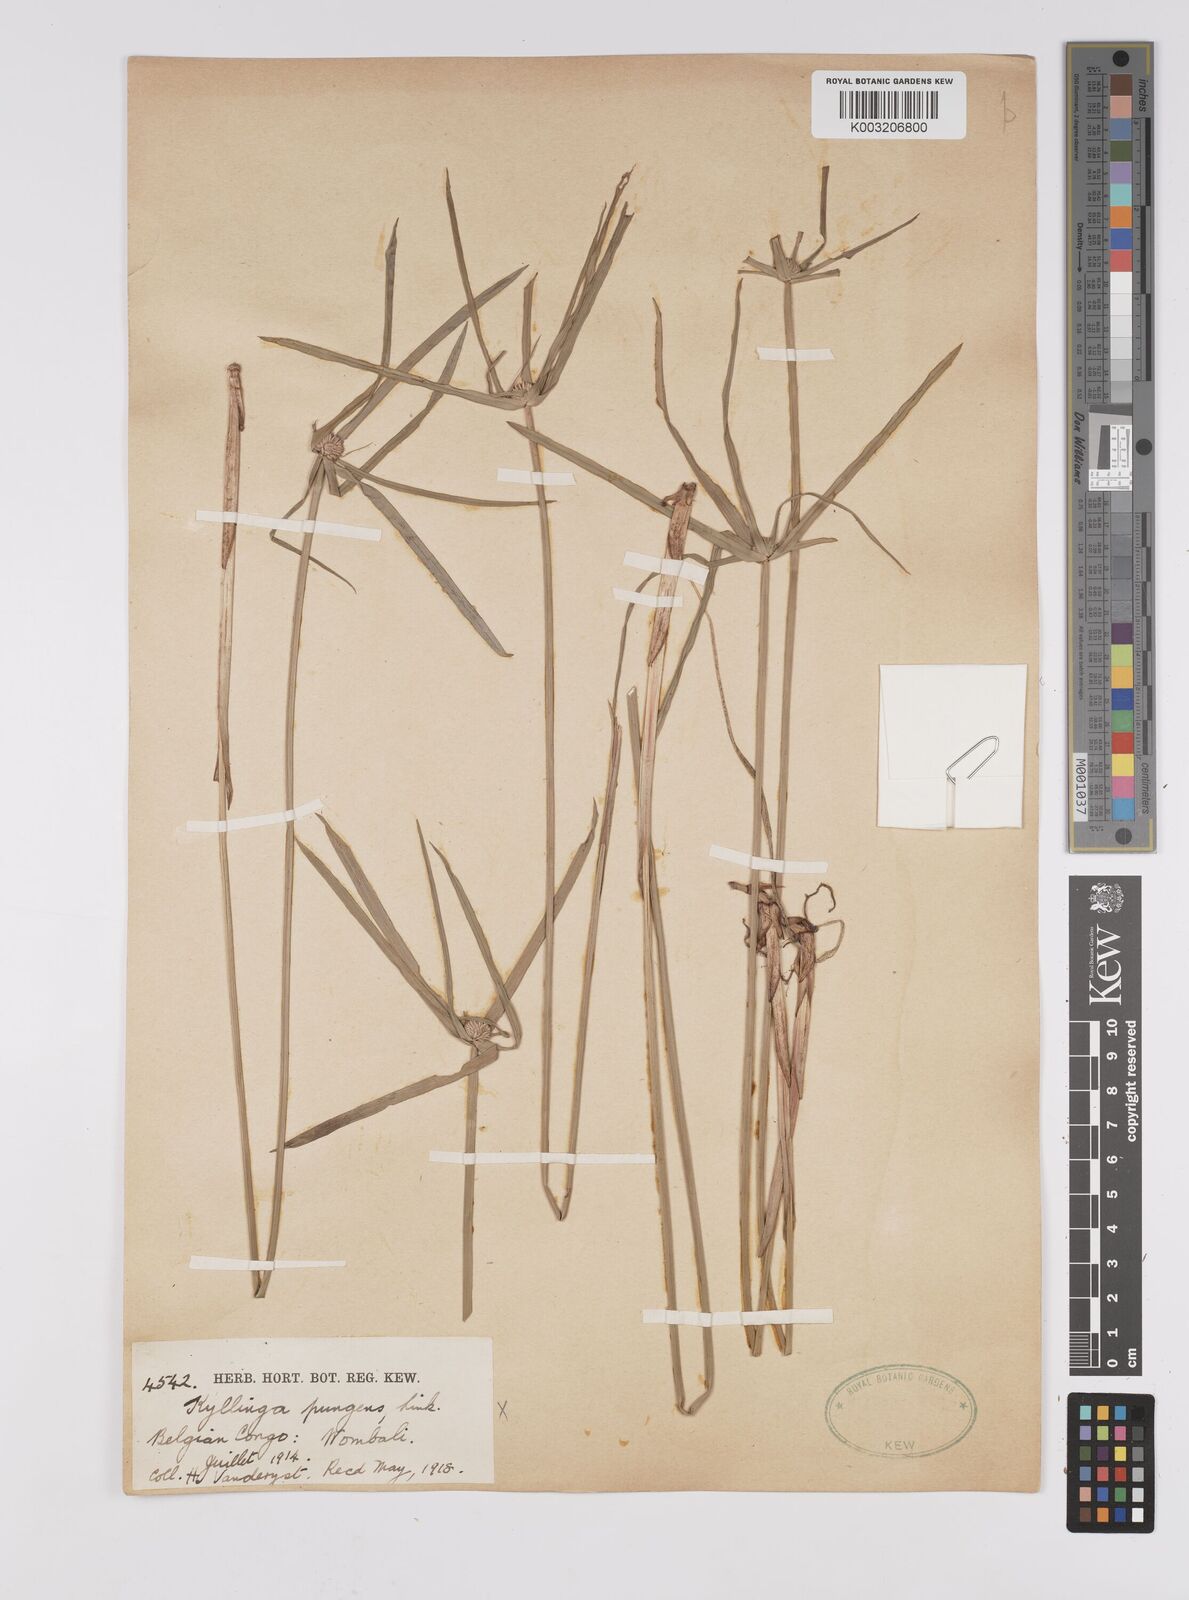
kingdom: Plantae
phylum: Tracheophyta
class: Liliopsida
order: Poales
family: Cyperaceae
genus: Cyperus
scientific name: Cyperus
